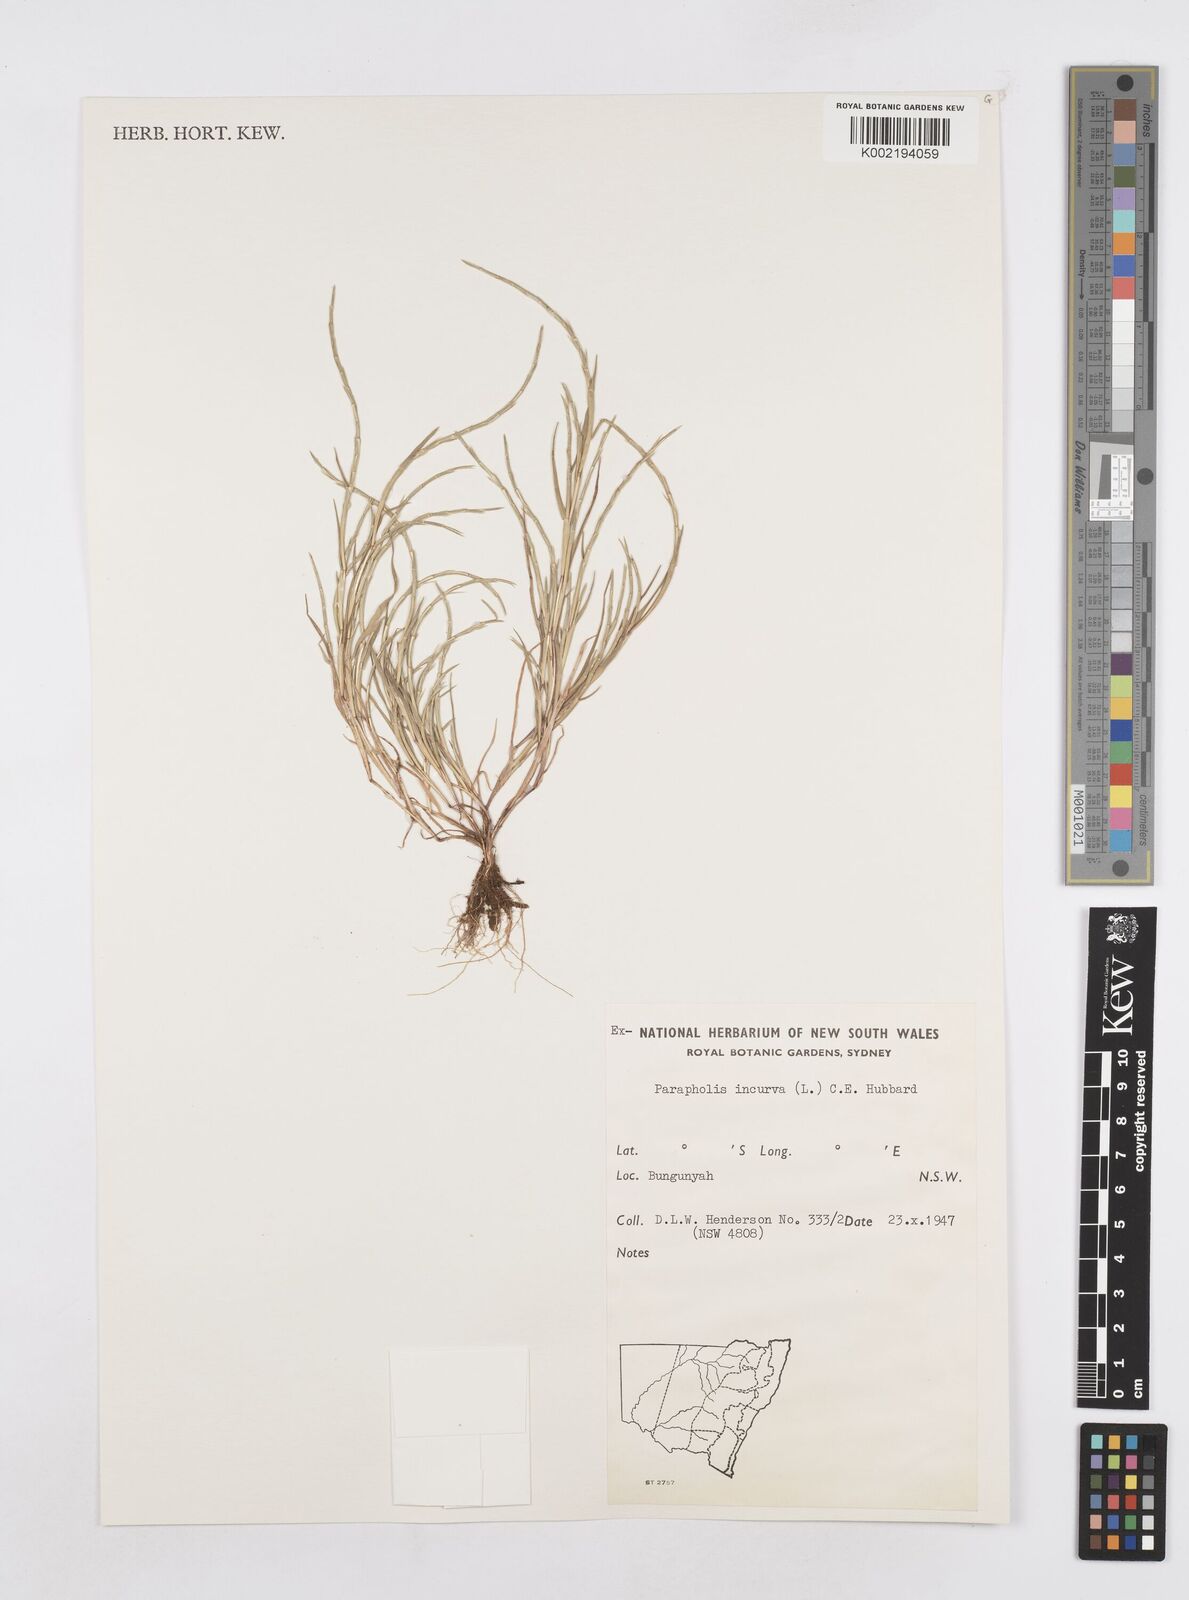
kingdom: Plantae
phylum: Tracheophyta
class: Liliopsida
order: Poales
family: Poaceae
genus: Parapholis
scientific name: Parapholis incurva
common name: Curved sicklegrass
